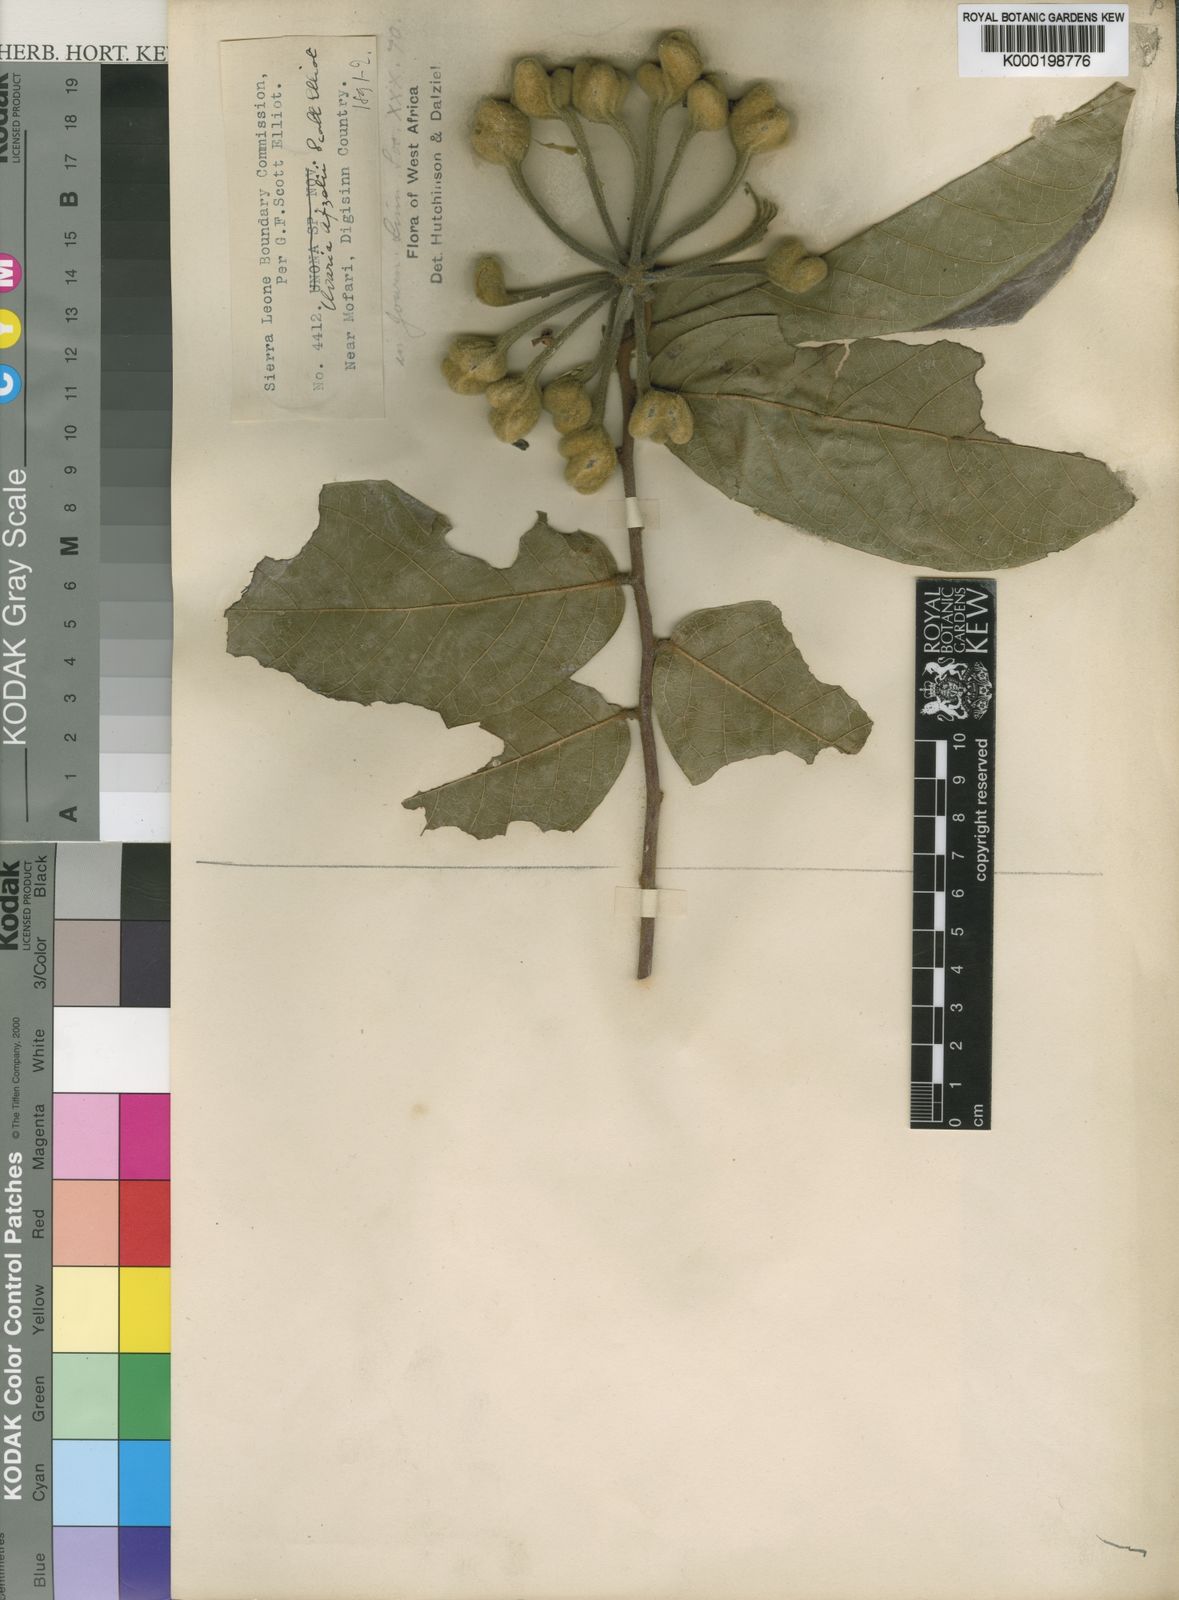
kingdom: Plantae
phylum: Tracheophyta
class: Magnoliopsida
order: Magnoliales
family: Annonaceae
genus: Uvaria
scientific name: Uvaria afzelii
